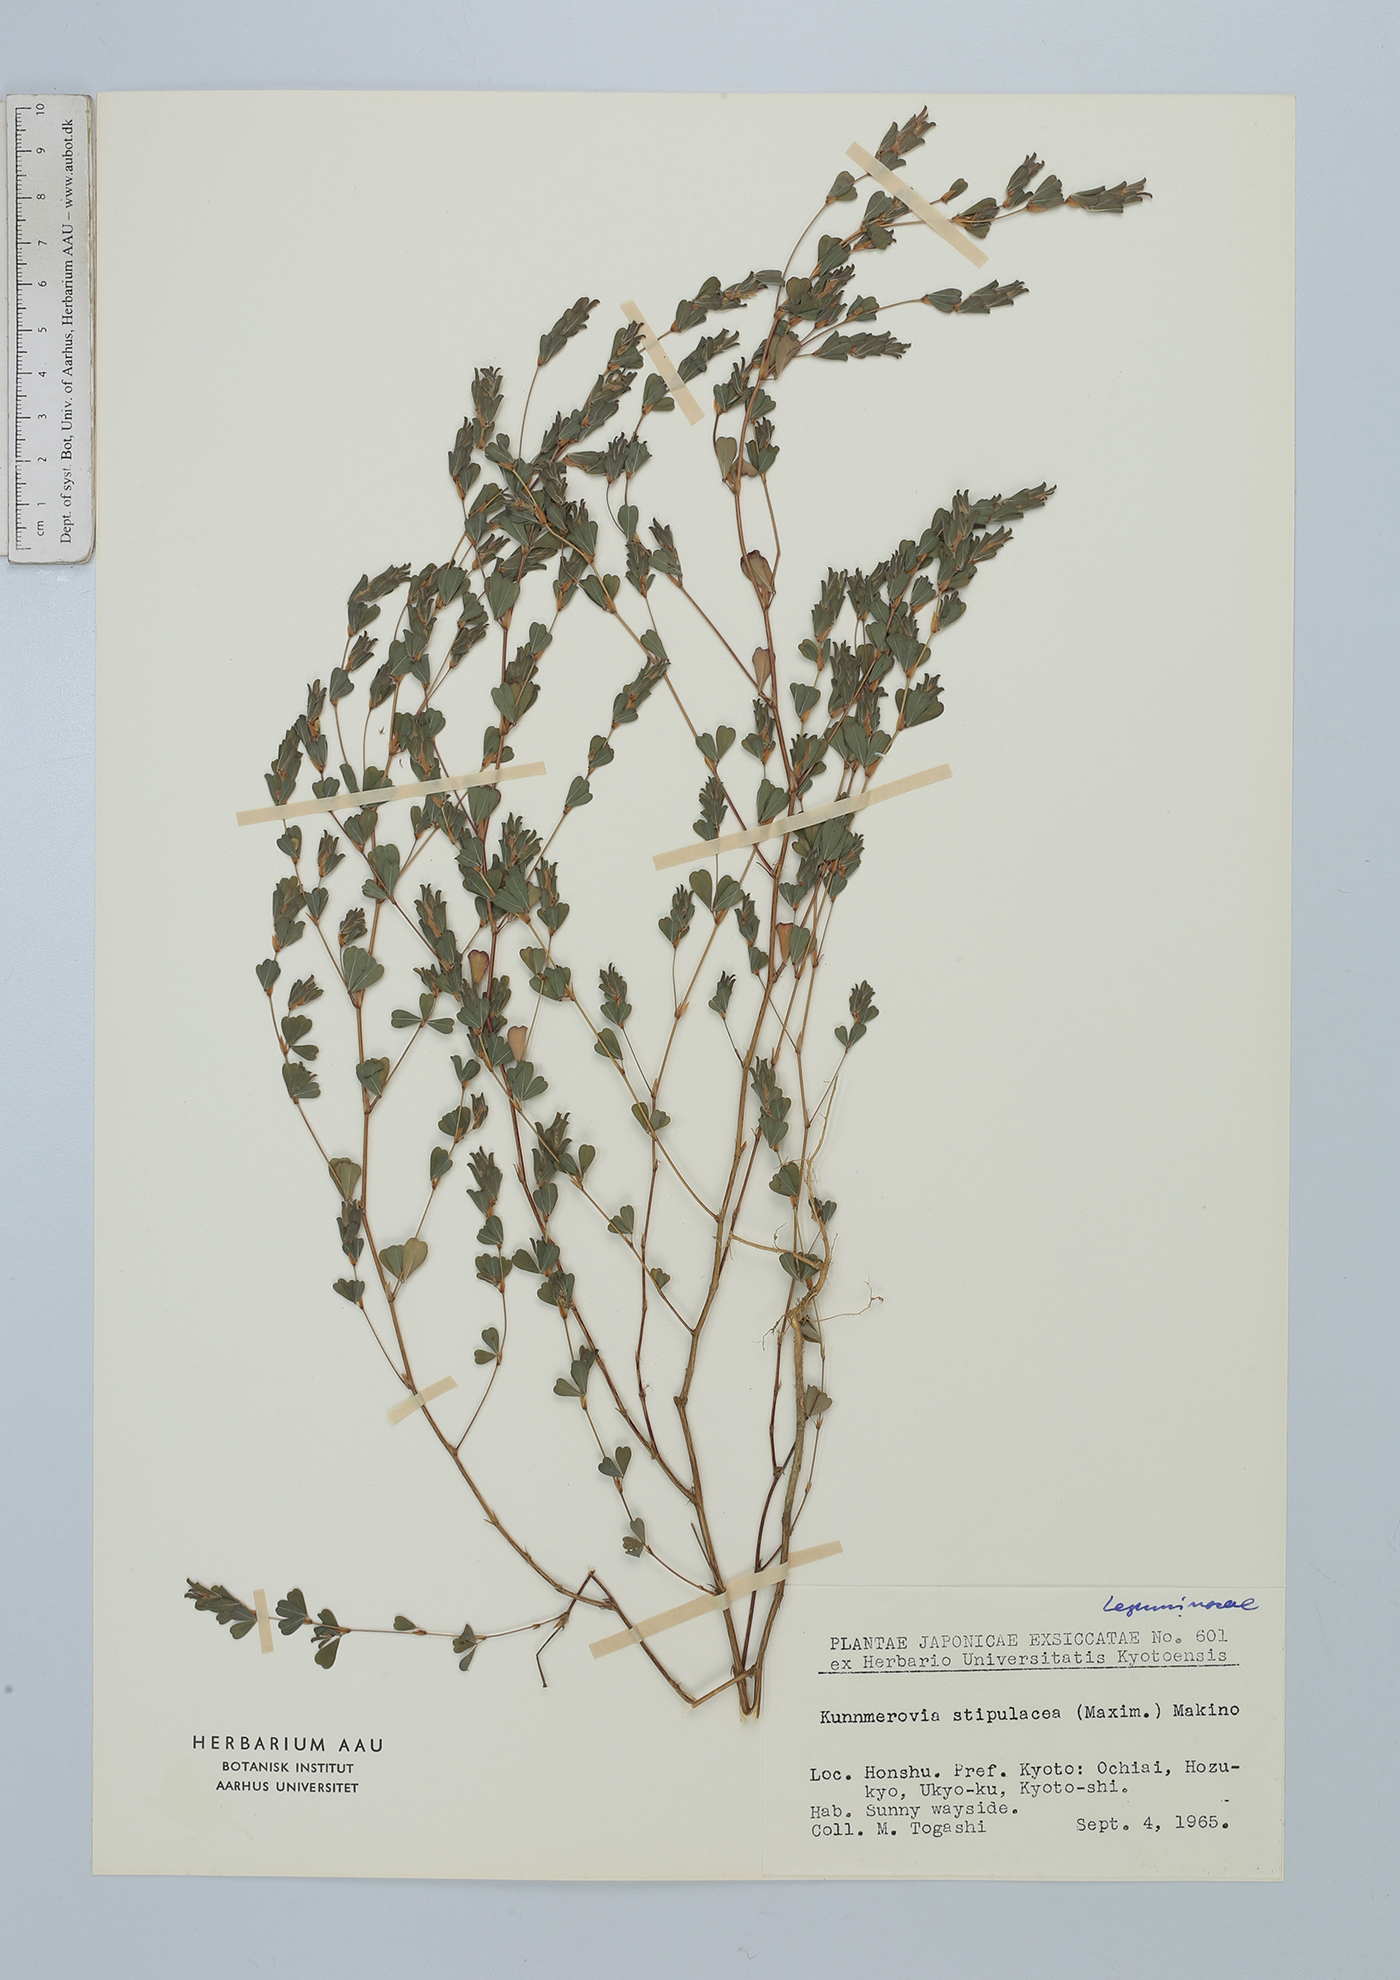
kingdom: Plantae
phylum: Tracheophyta
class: Magnoliopsida
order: Fabales
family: Fabaceae
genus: Kummerowia
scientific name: Kummerowia stipulacea
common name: Korean clover
